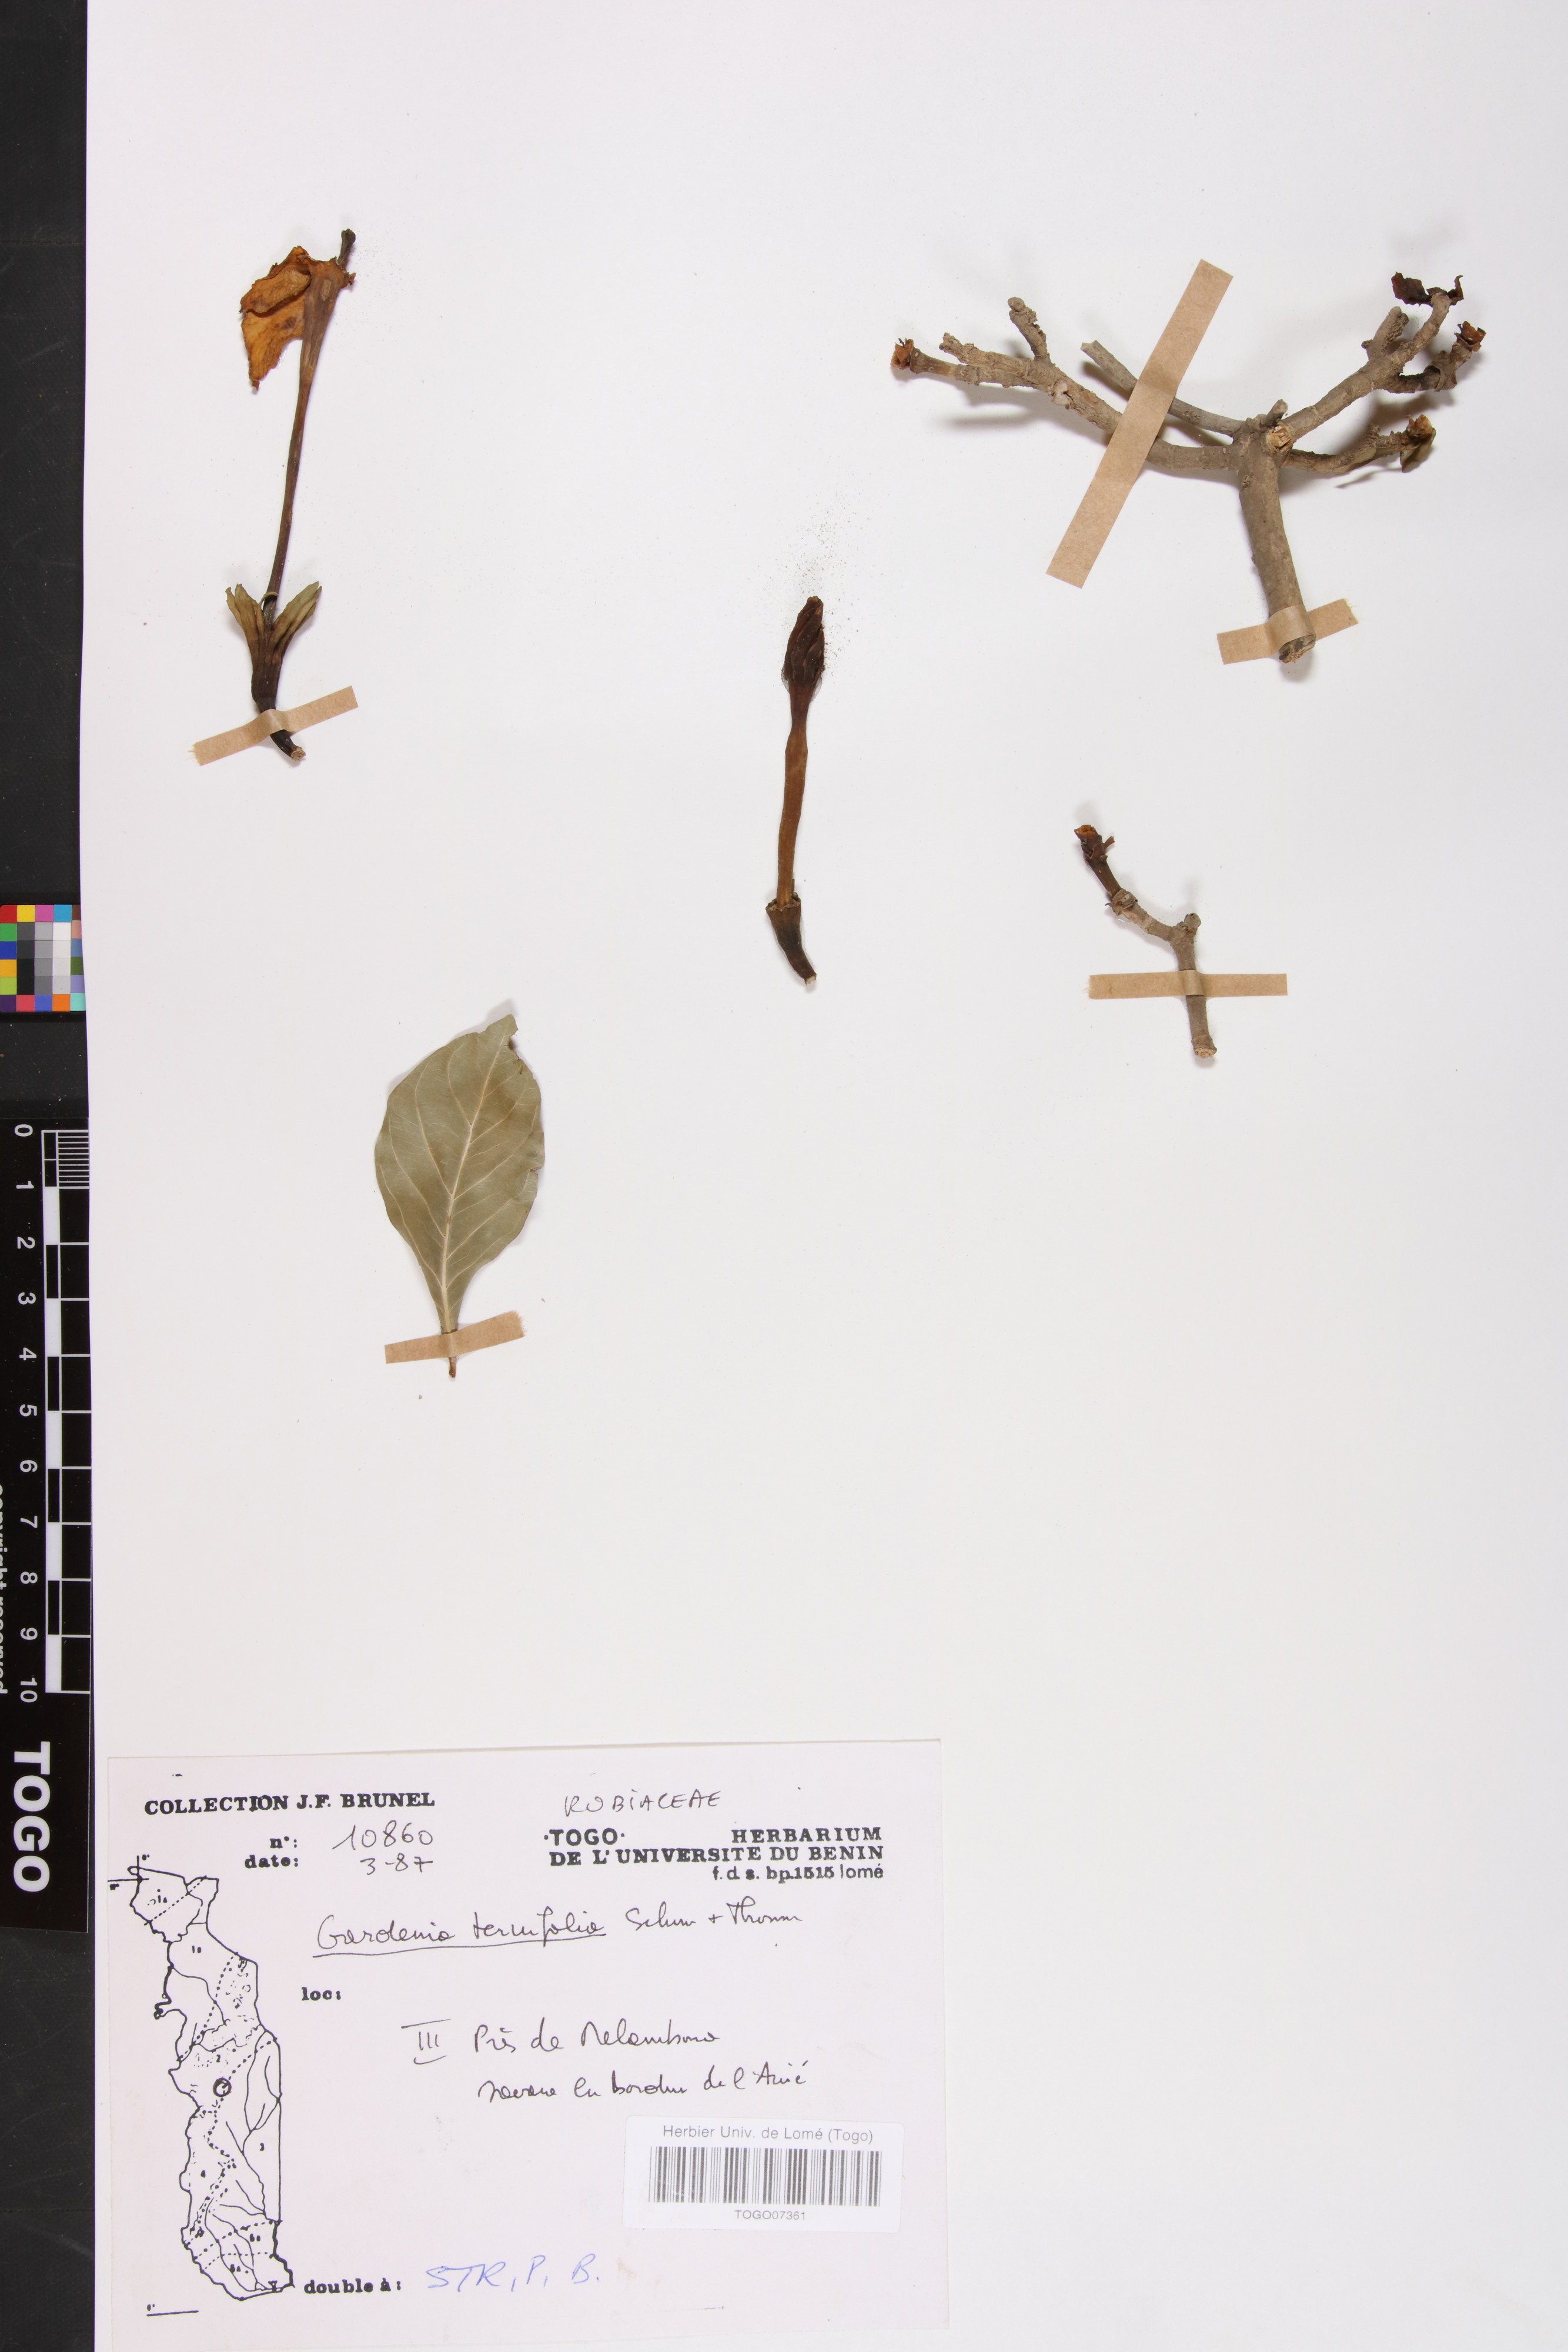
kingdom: Plantae
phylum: Tracheophyta
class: Magnoliopsida
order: Gentianales
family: Rubiaceae
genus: Gardenia
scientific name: Gardenia ternifolia
